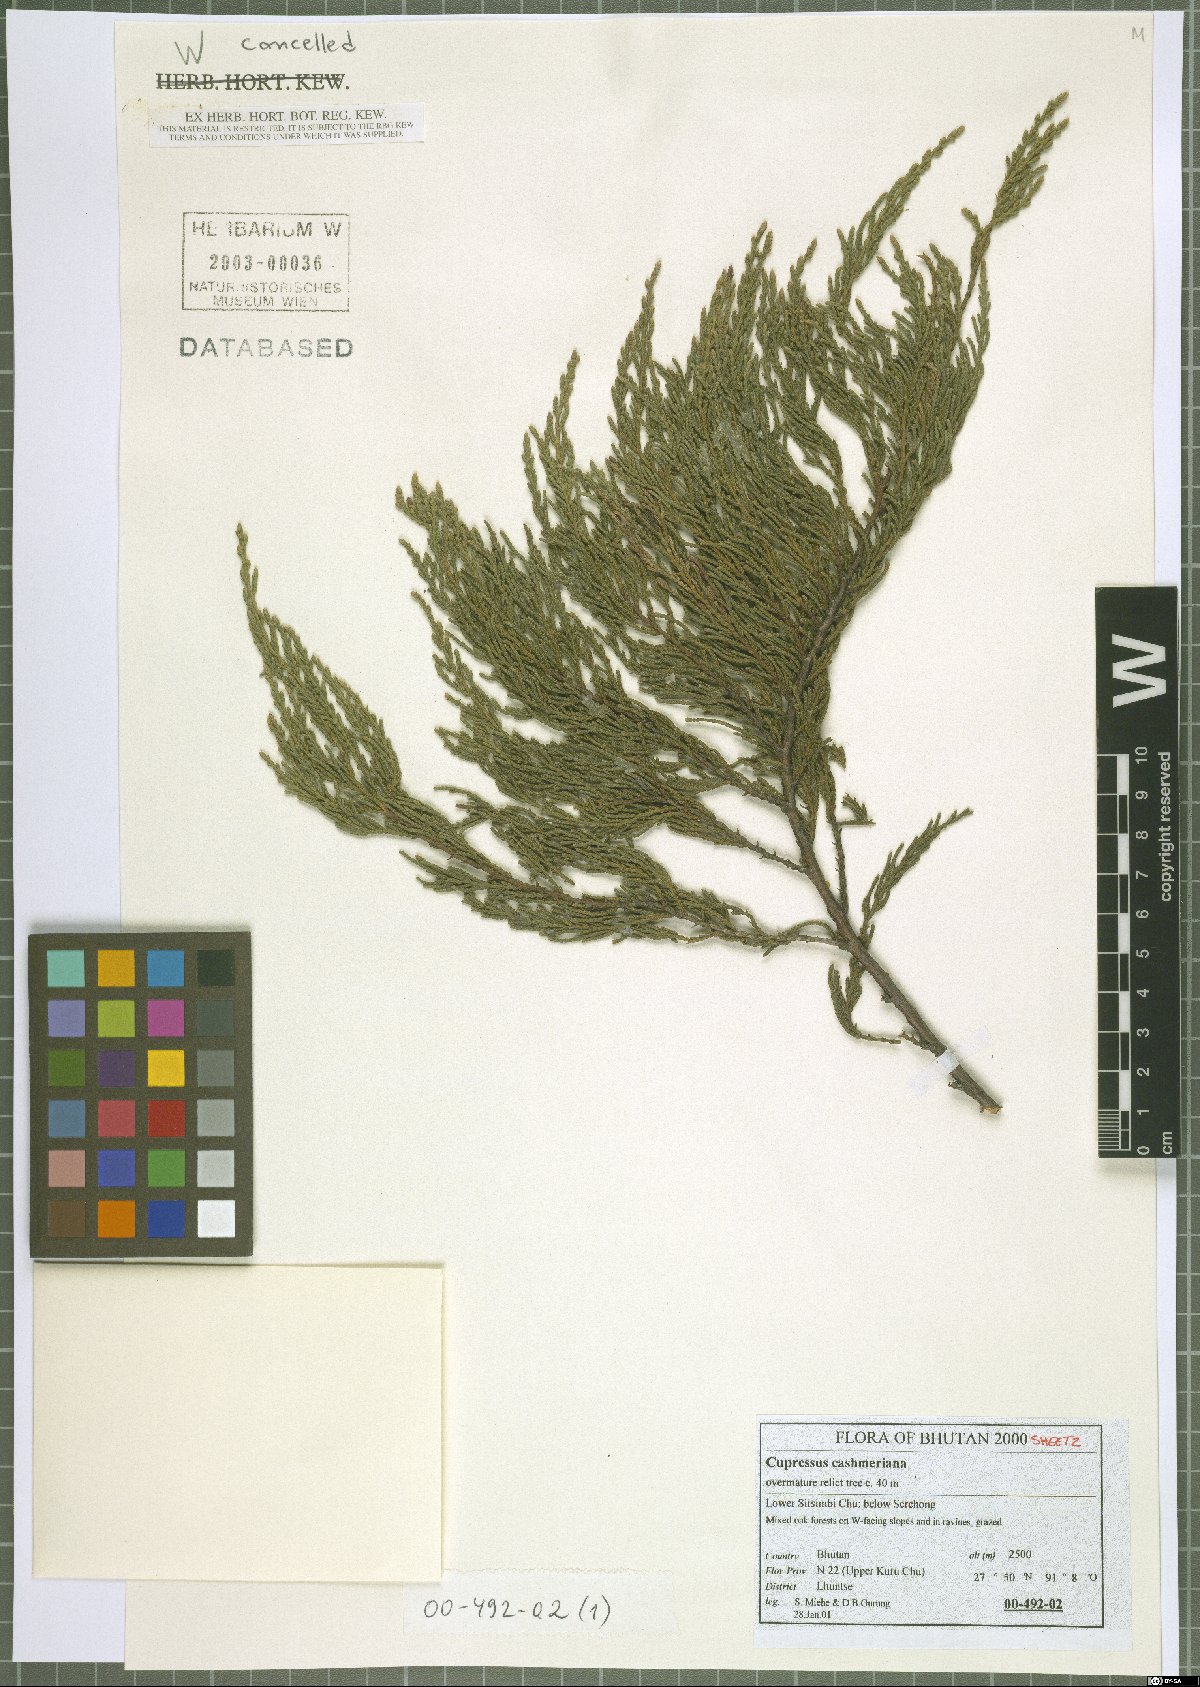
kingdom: Plantae
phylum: Tracheophyta
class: Pinopsida
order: Pinales
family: Cupressaceae
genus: Cupressus
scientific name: Cupressus cashmeriana
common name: Bhutan cypress
